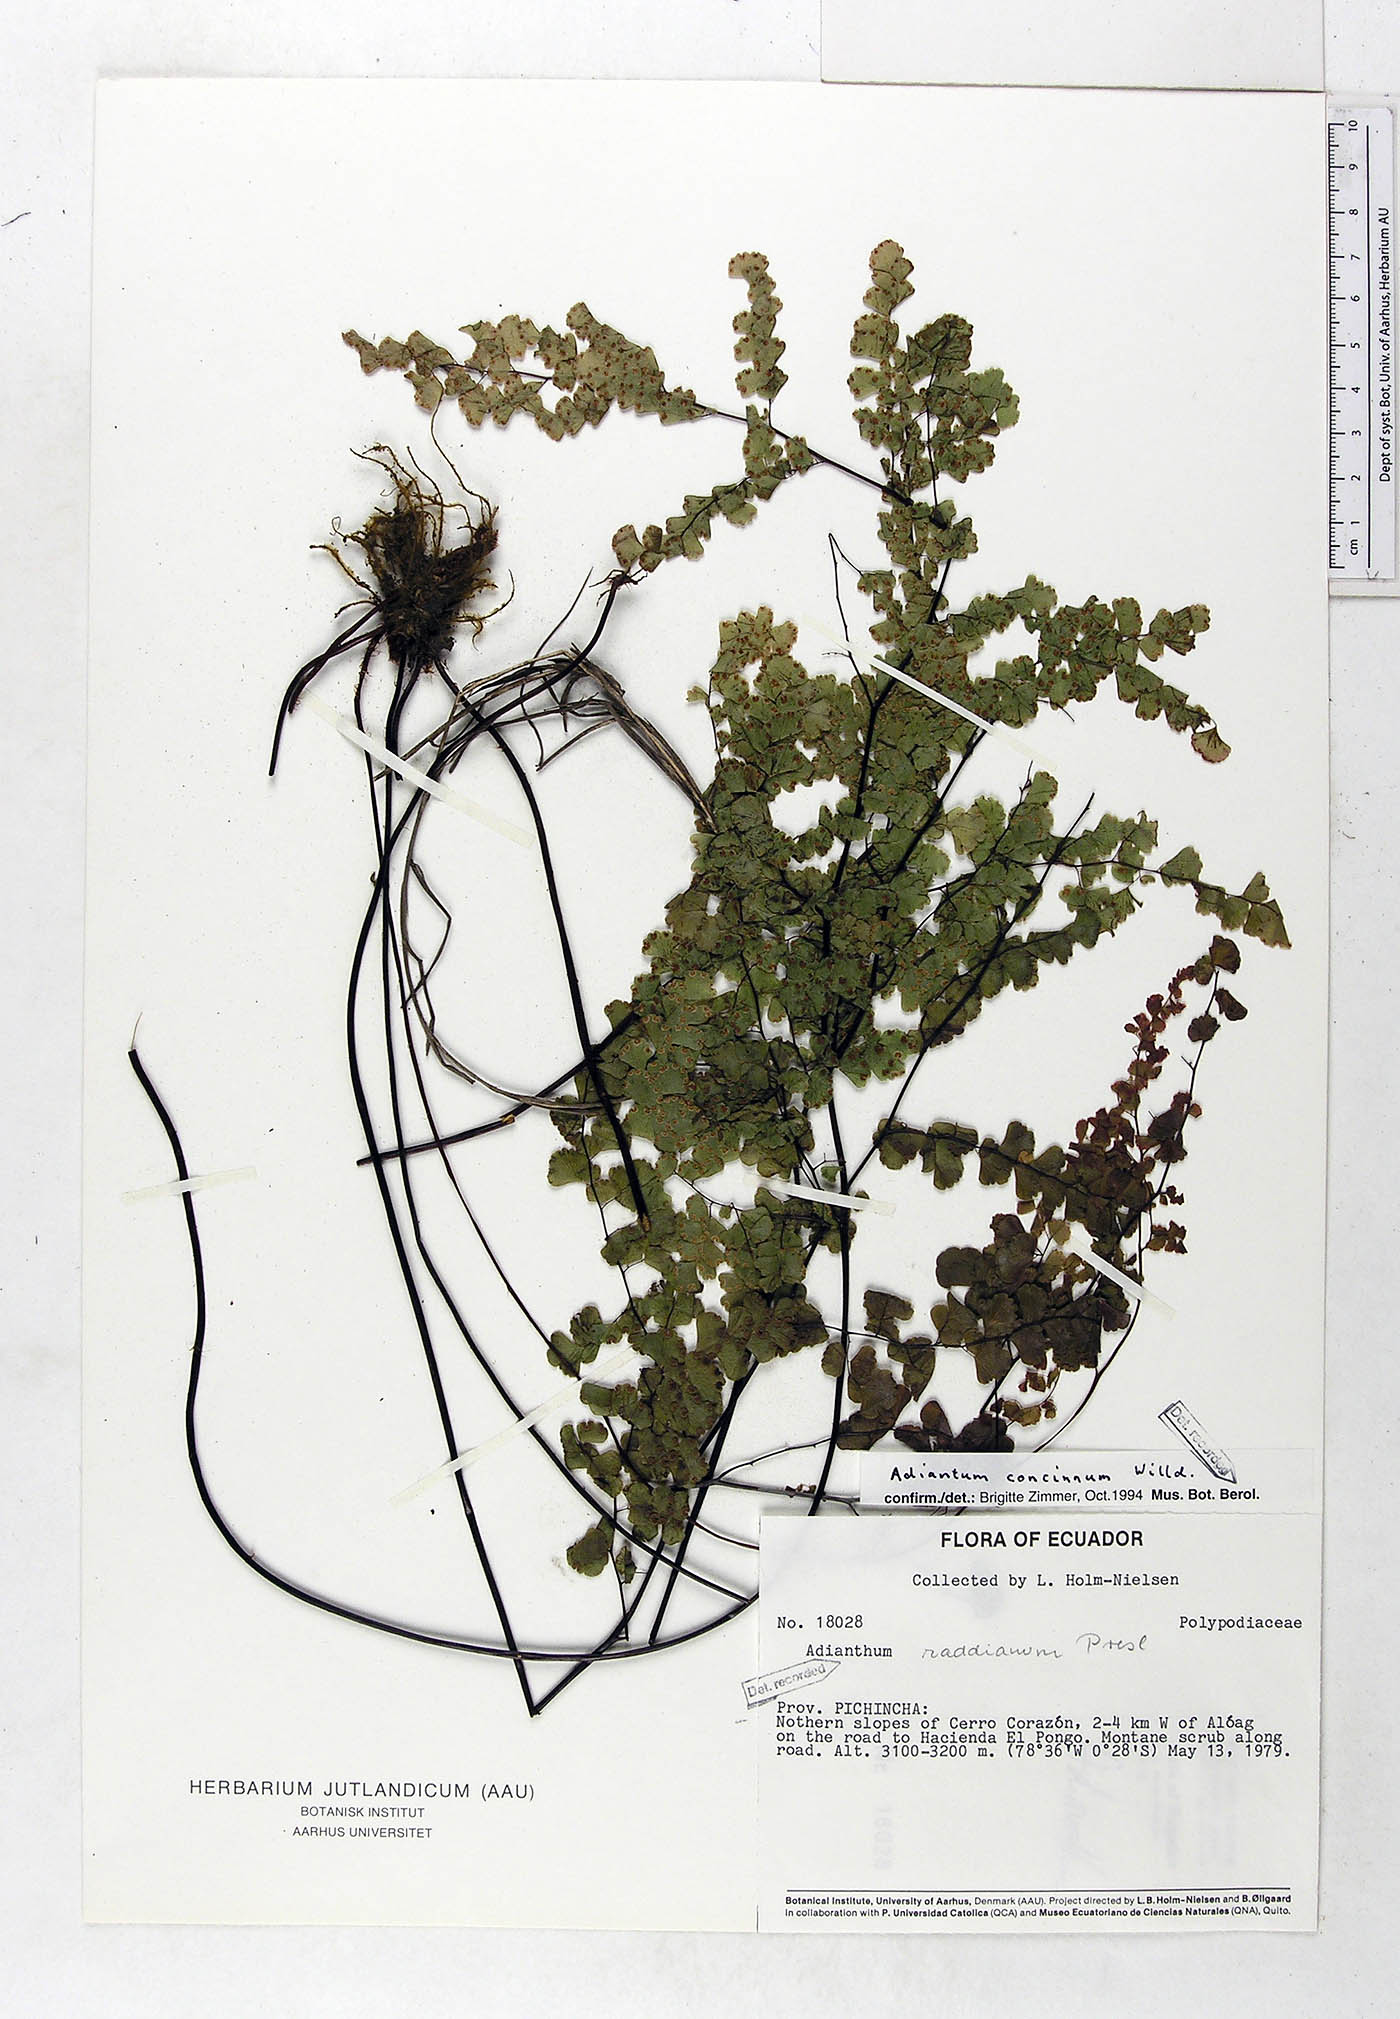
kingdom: Plantae
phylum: Tracheophyta
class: Polypodiopsida
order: Polypodiales
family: Pteridaceae
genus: Adiantum
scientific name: Adiantum concinnum
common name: Brittle maidenhair fern
